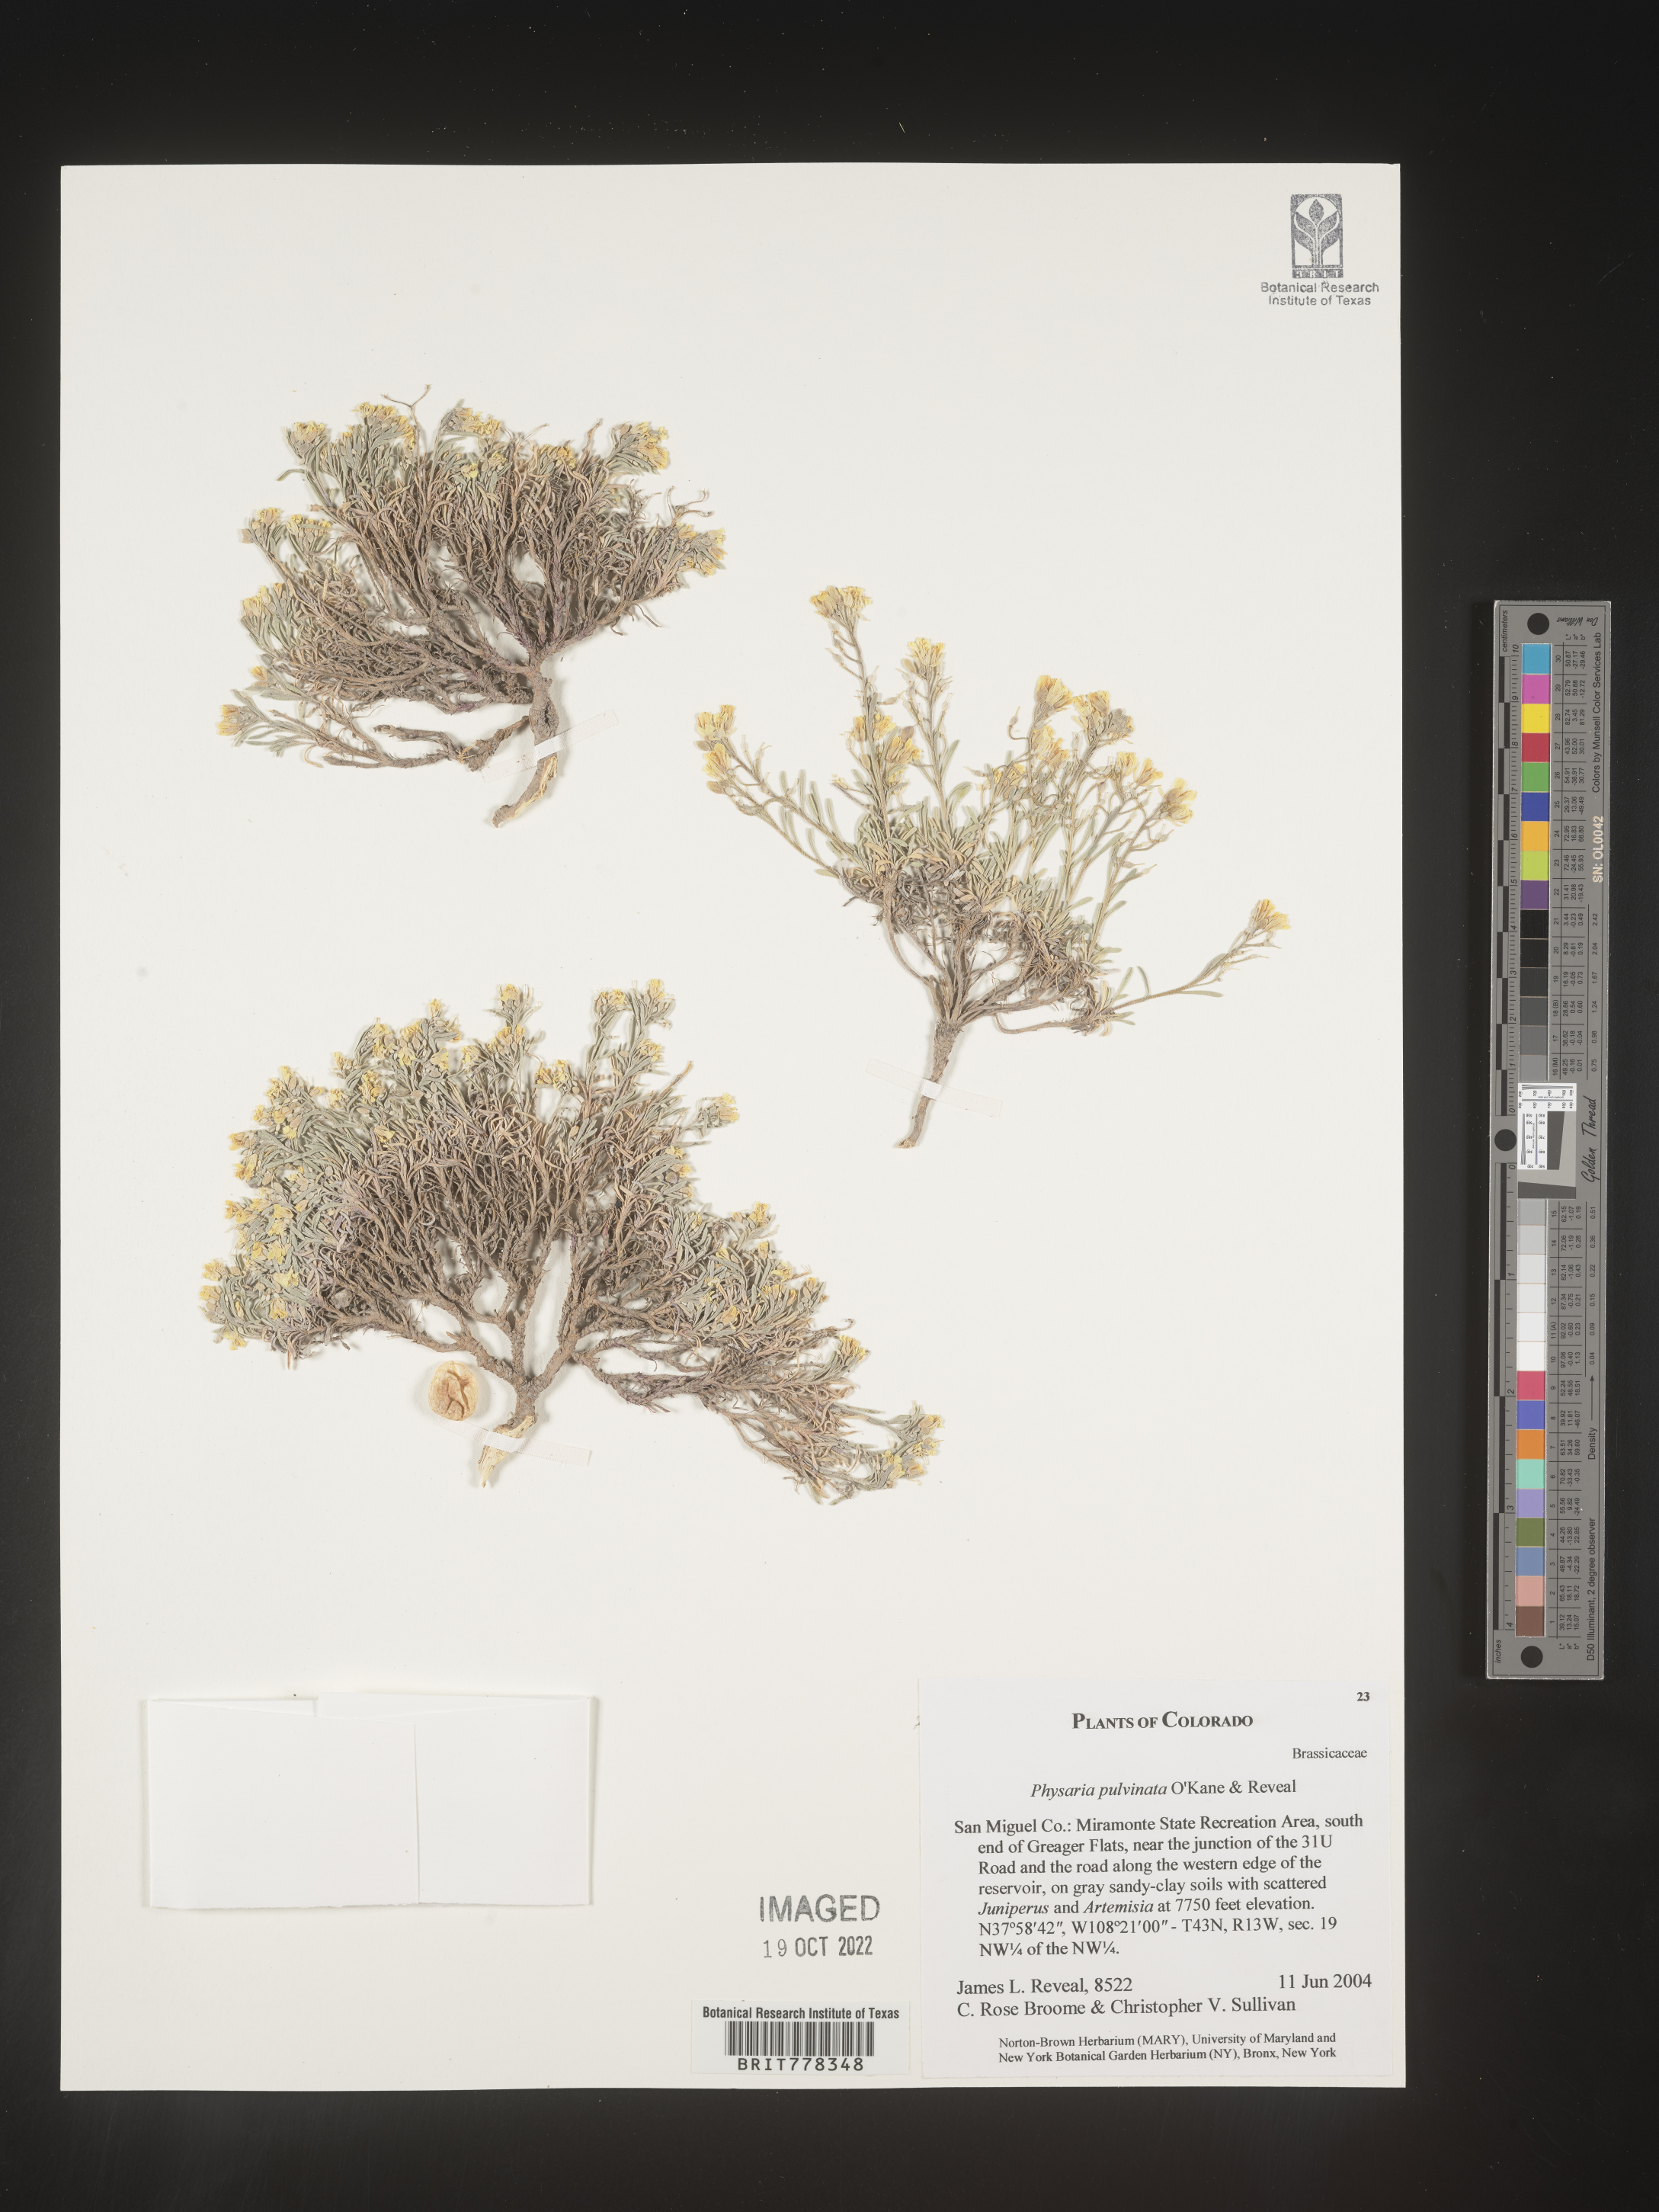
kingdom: Plantae
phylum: Tracheophyta
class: Magnoliopsida
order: Brassicales
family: Brassicaceae
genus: Physaria
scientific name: Physaria
